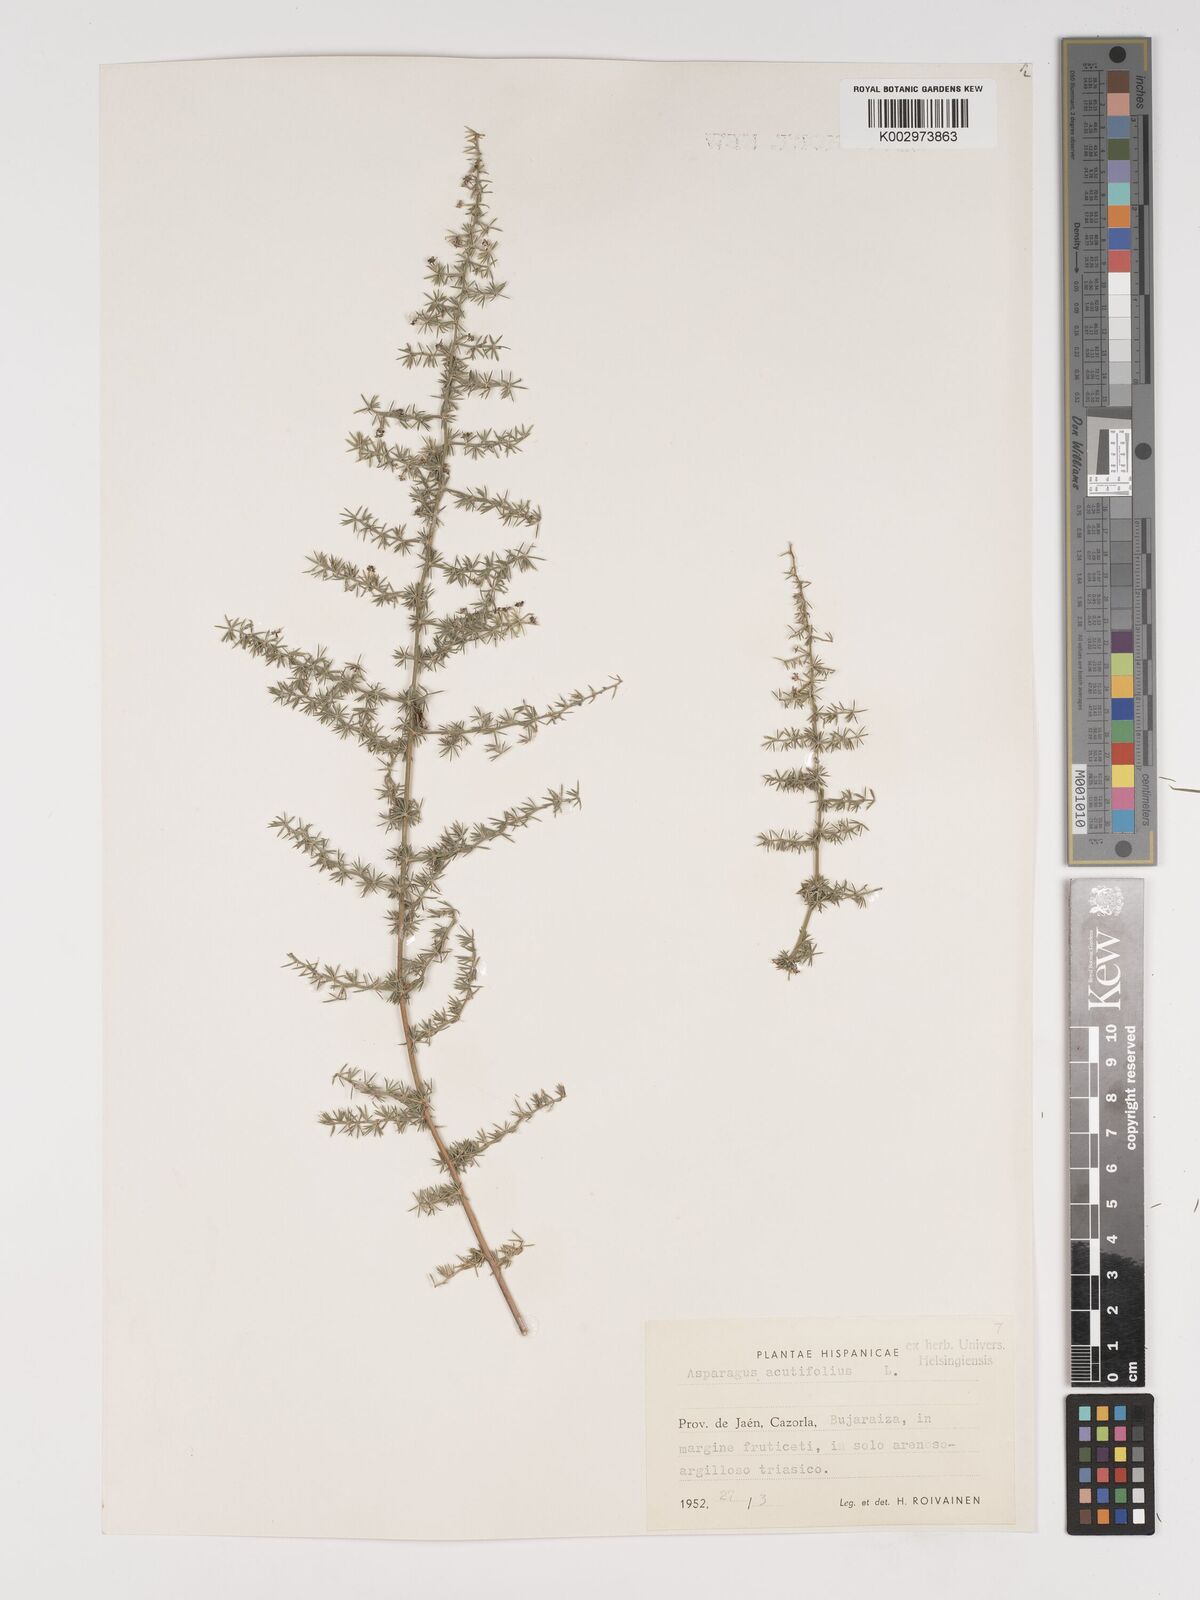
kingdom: Plantae
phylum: Tracheophyta
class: Liliopsida
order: Asparagales
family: Asparagaceae
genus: Asparagus
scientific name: Asparagus acutifolius
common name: Wild asparagus
